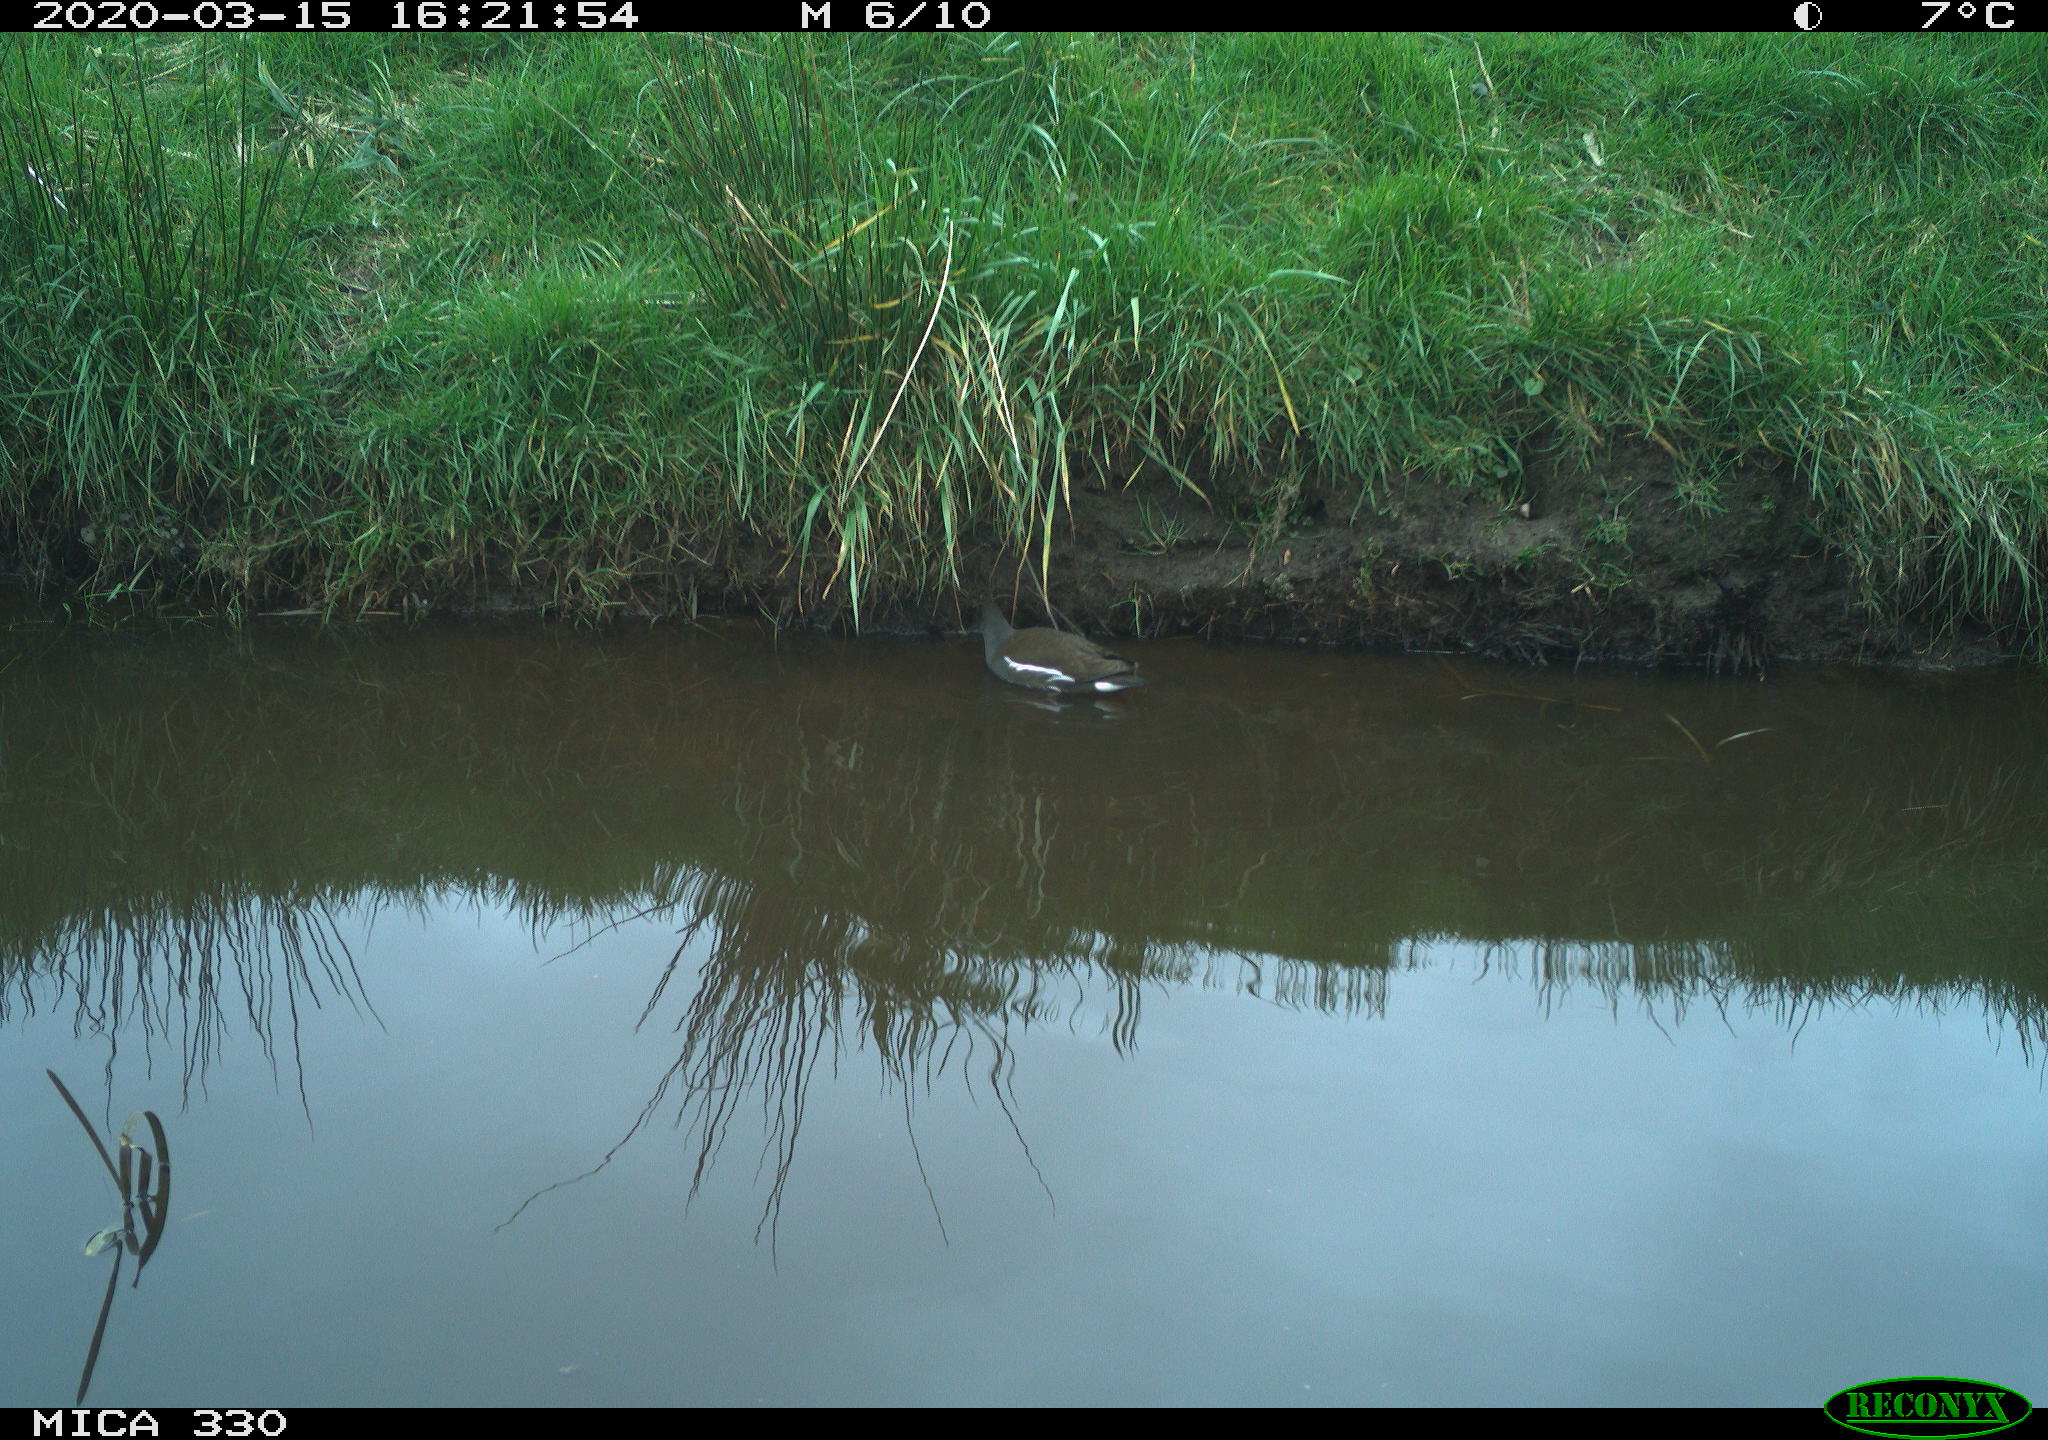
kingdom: Animalia
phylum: Chordata
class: Aves
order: Gruiformes
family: Rallidae
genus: Gallinula
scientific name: Gallinula chloropus
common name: Common moorhen
